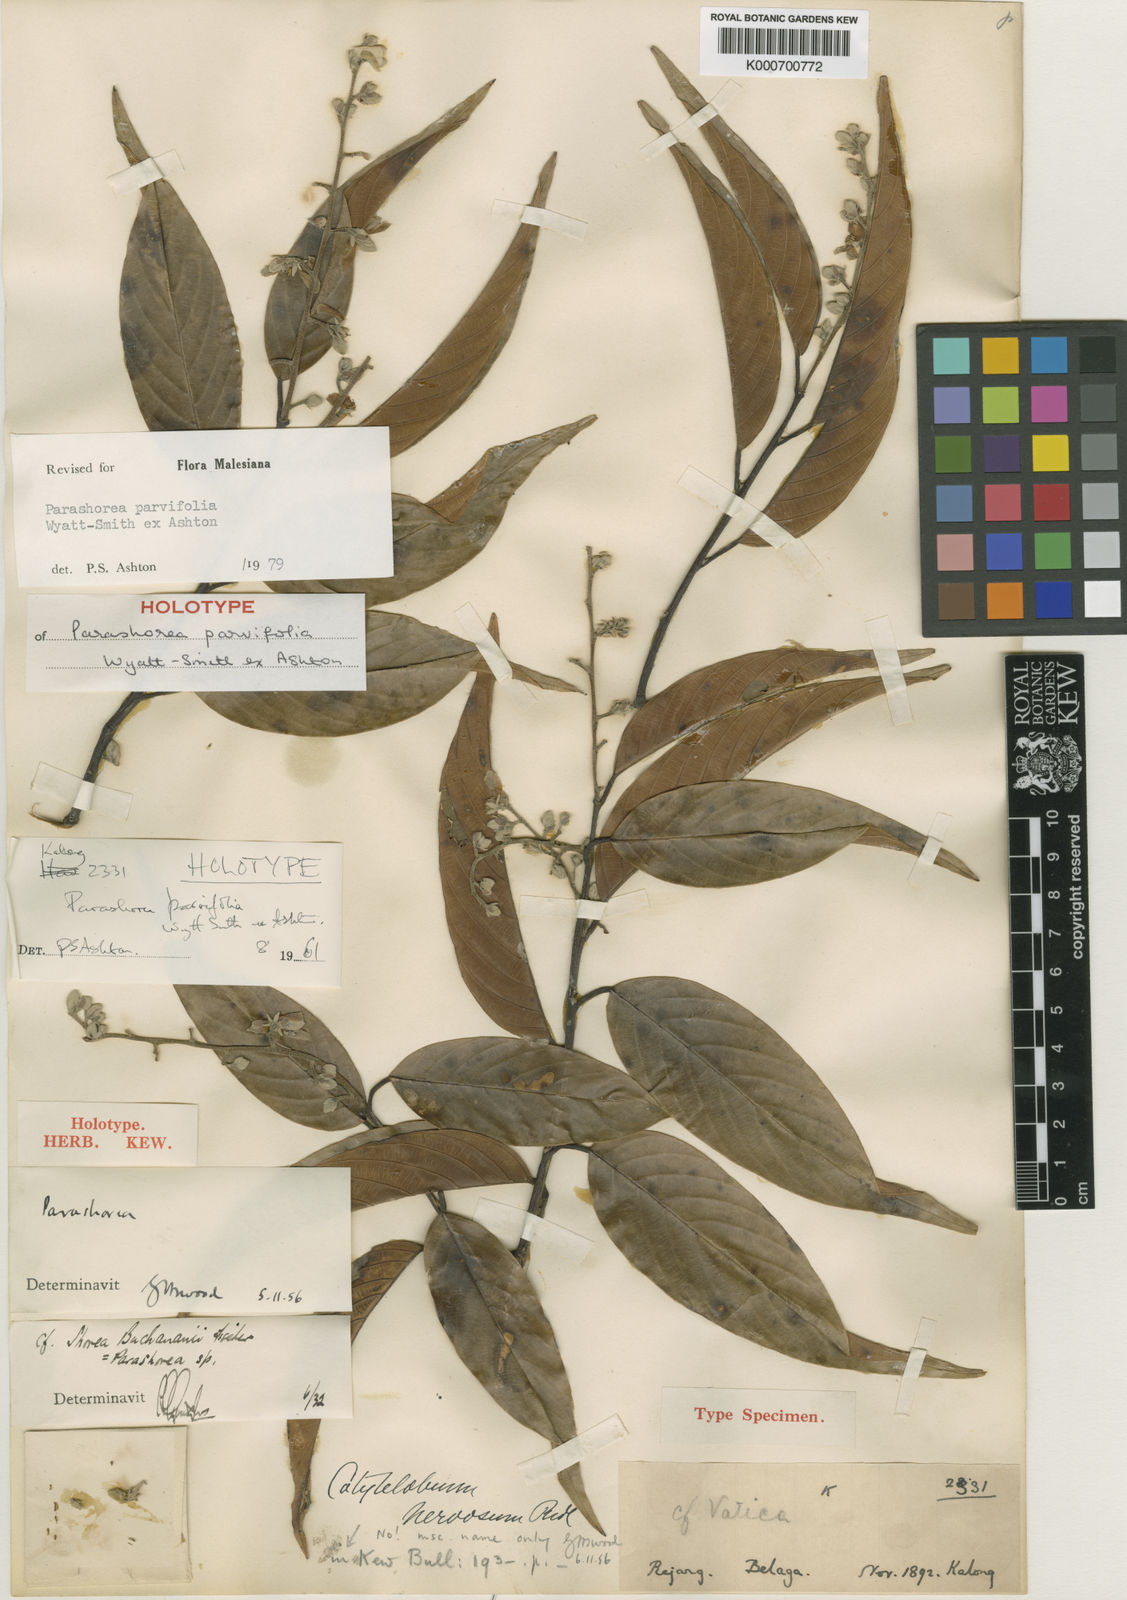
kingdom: Plantae
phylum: Tracheophyta
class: Magnoliopsida
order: Malvales
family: Dipterocarpaceae
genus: Parashorea
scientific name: Parashorea parvifolia
